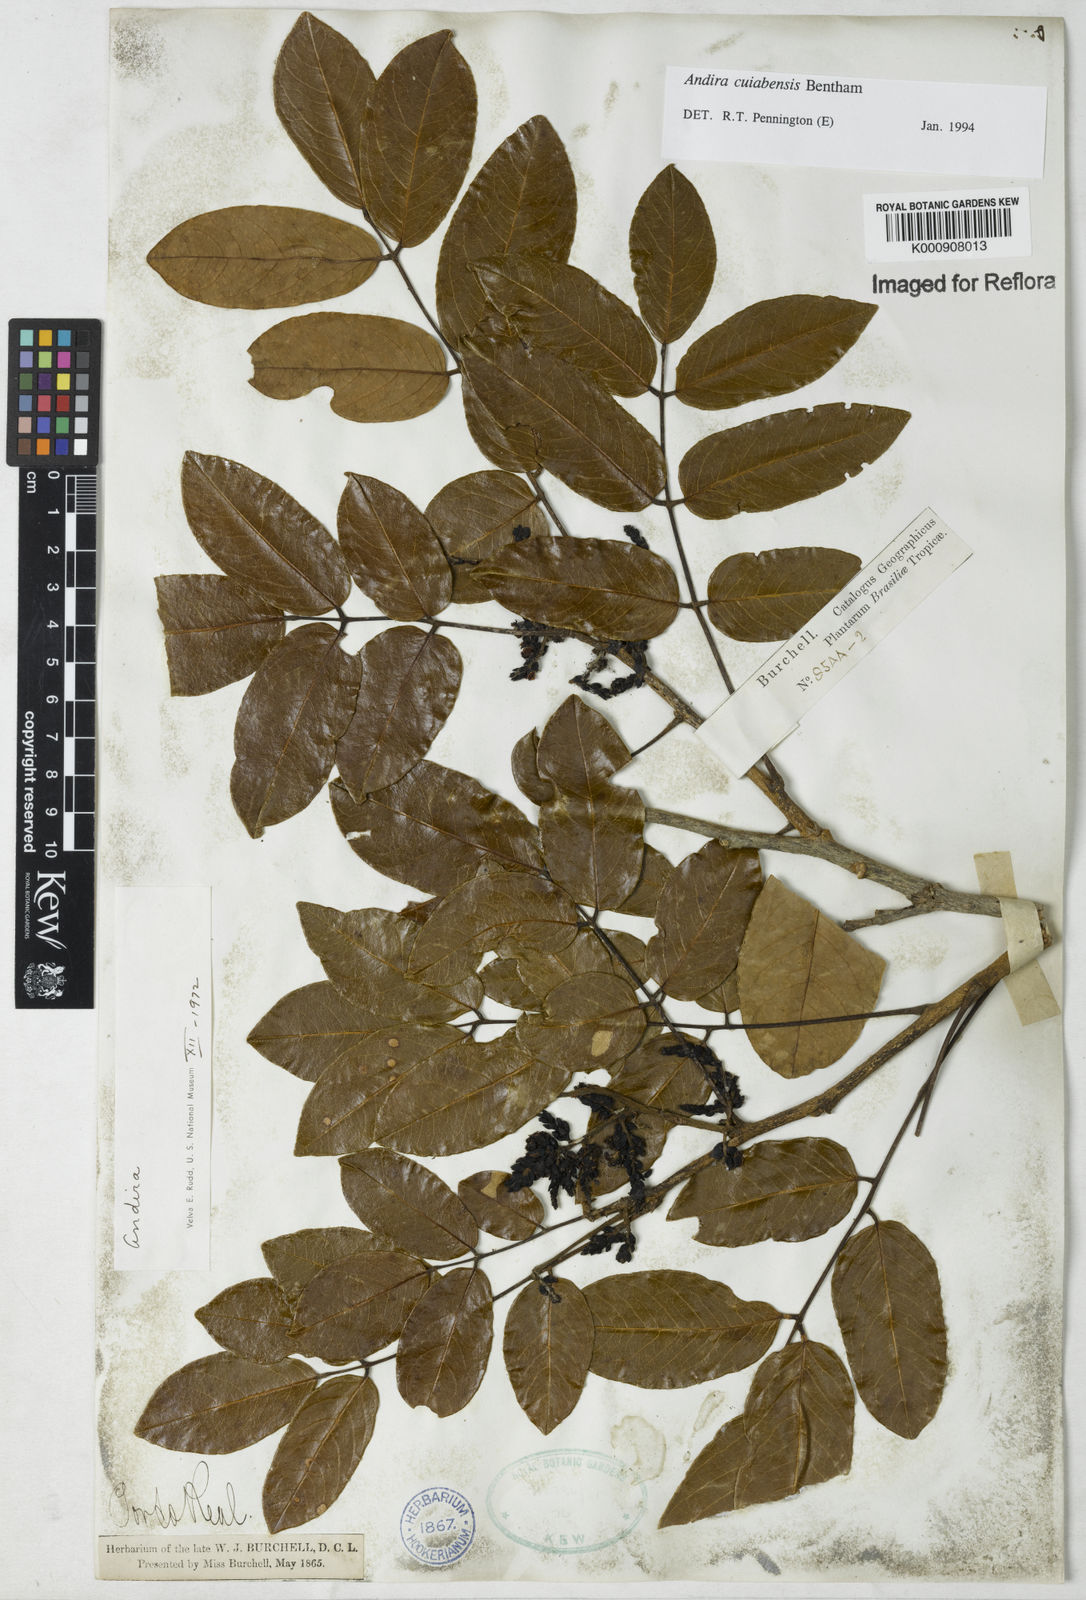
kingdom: Plantae
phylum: Tracheophyta
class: Magnoliopsida
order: Fabales
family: Fabaceae
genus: Andira
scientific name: Andira cujabensis
